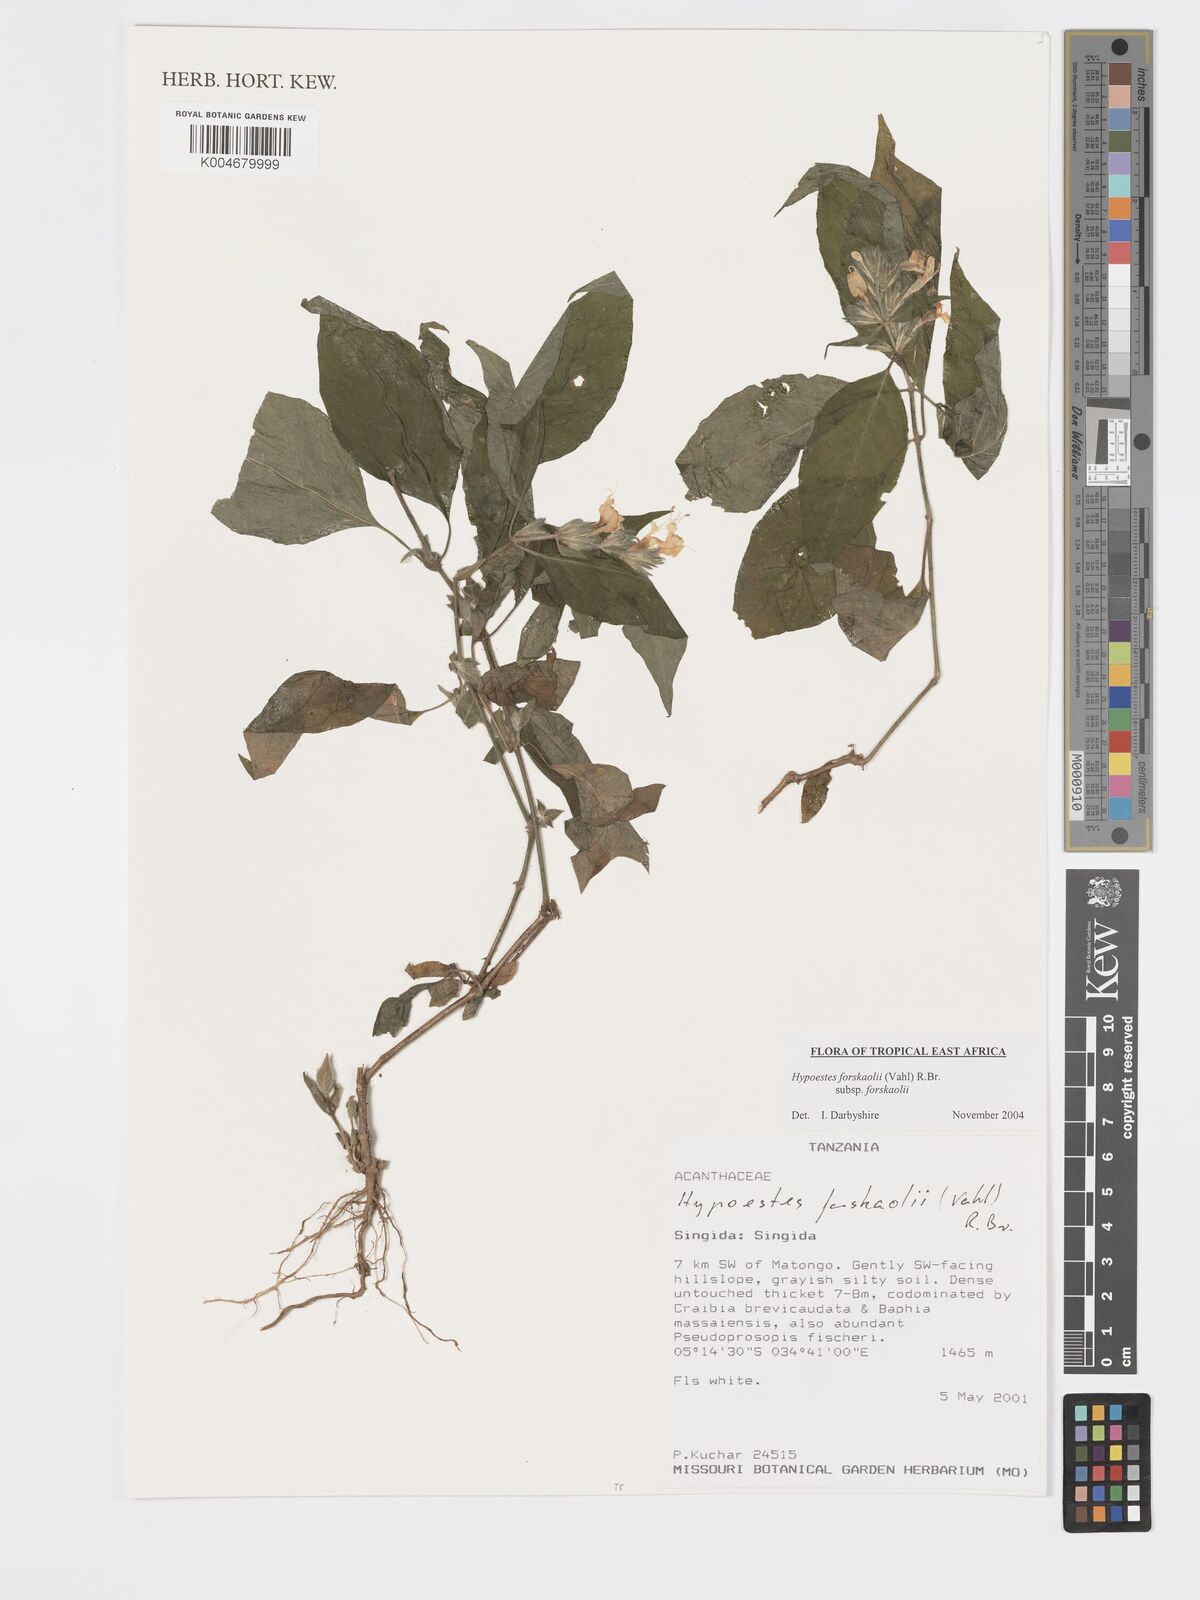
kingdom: Plantae
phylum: Tracheophyta
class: Magnoliopsida
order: Lamiales
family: Acanthaceae
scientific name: Acanthaceae
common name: Acanthaceae
